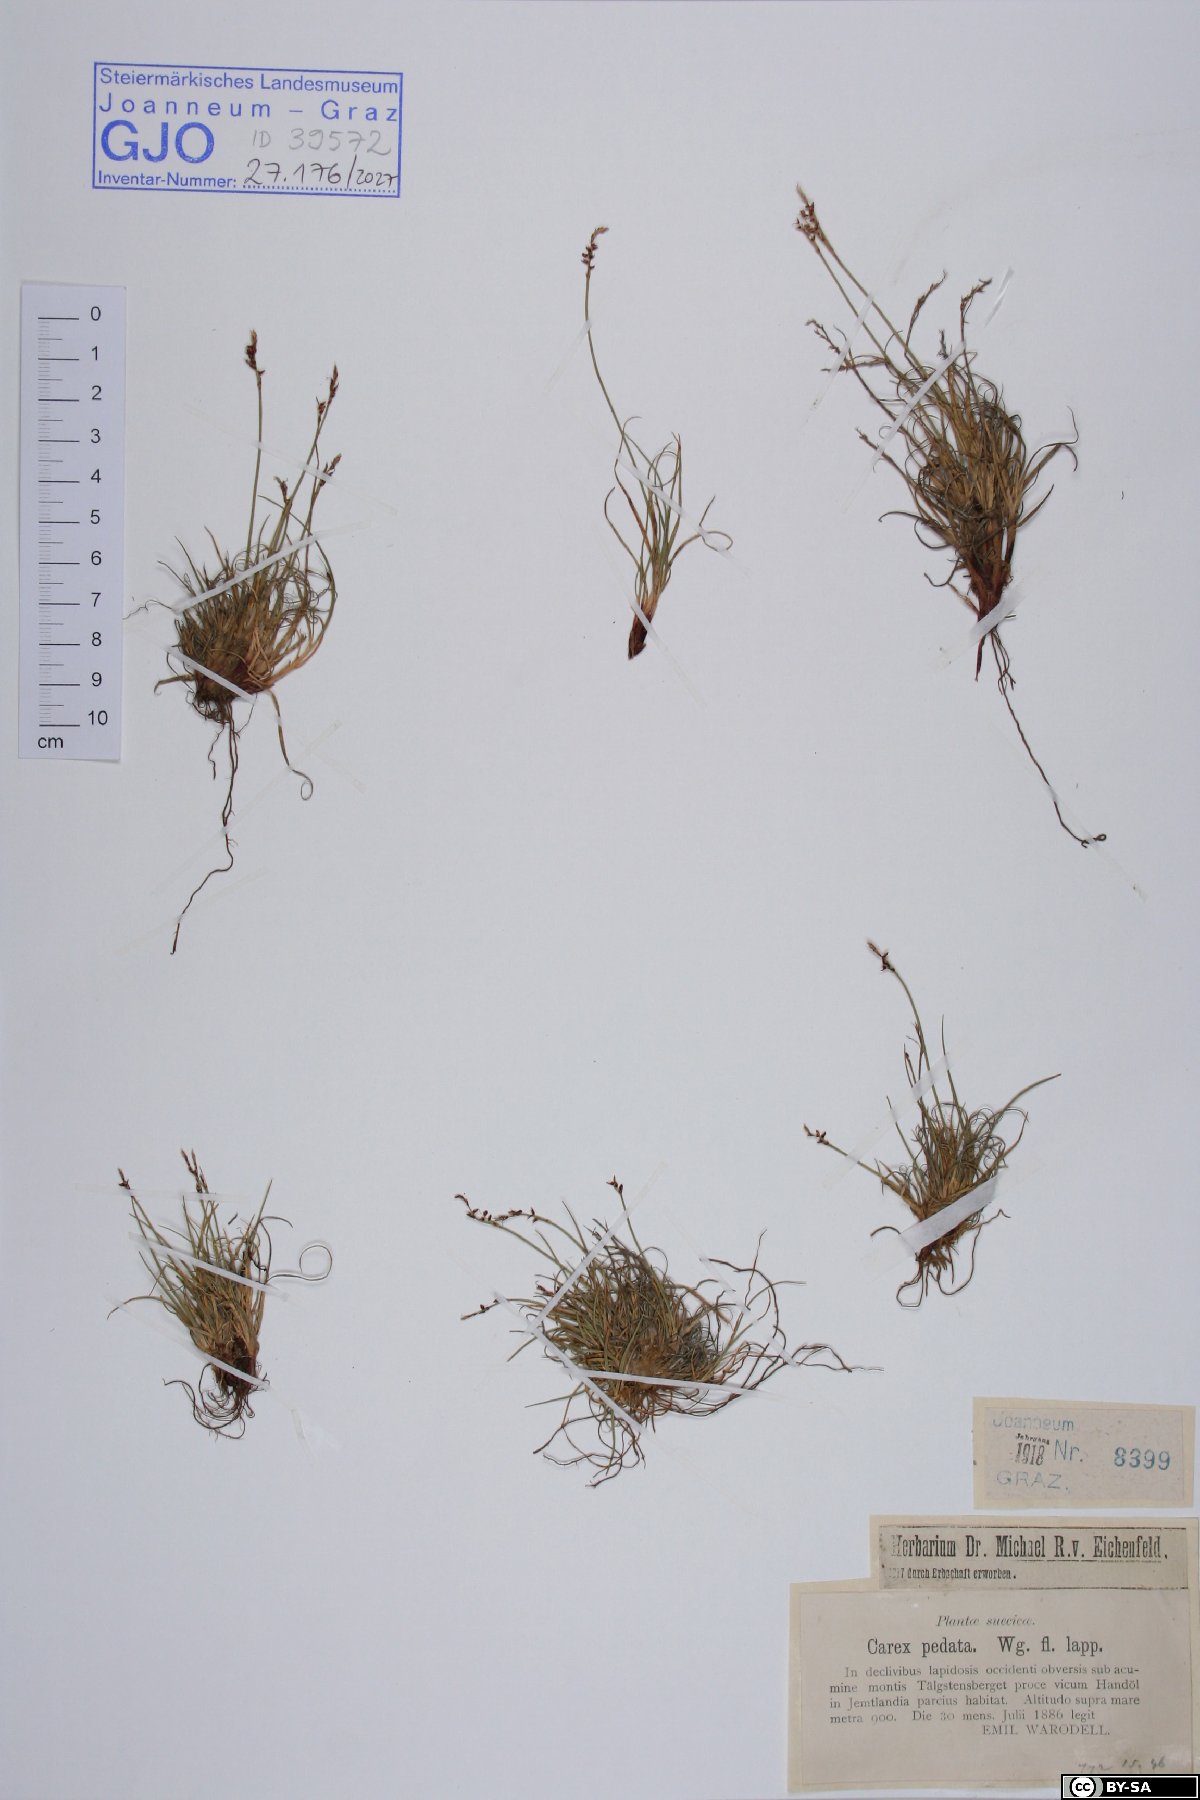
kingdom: Plantae
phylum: Tracheophyta
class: Liliopsida
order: Poales
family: Cyperaceae
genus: Carex
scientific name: Carex ornithopoda
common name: Bird's-foot sedge
